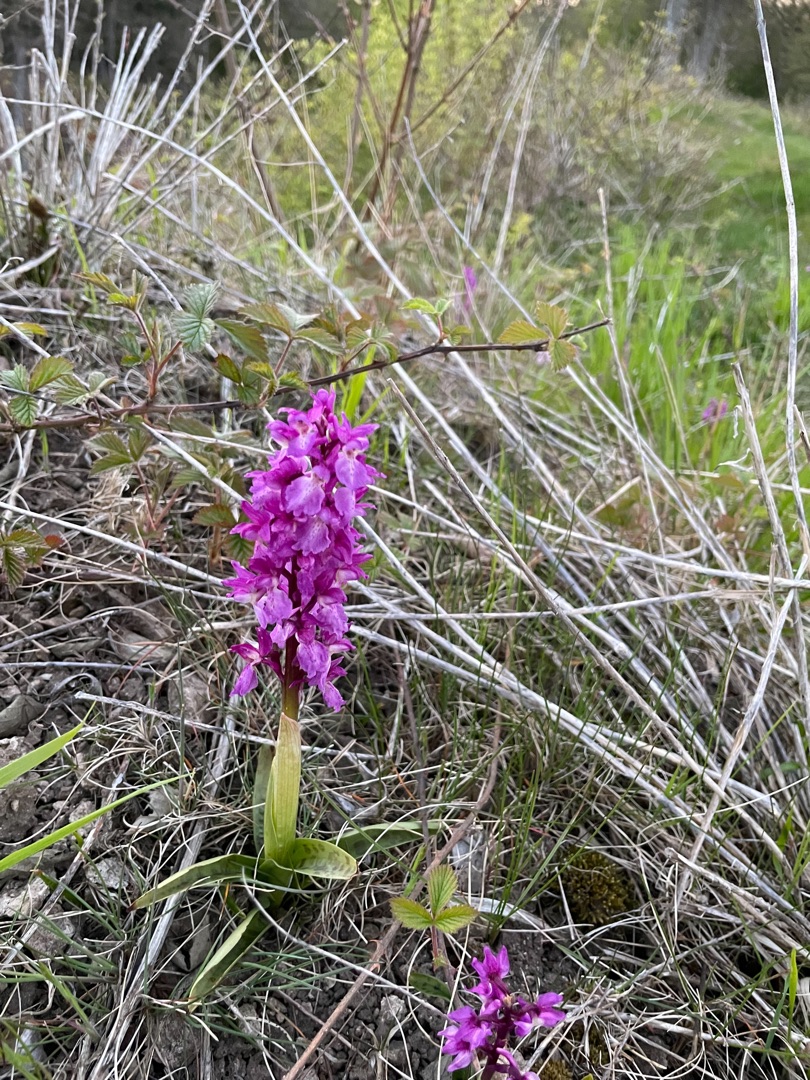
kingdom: Plantae
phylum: Tracheophyta
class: Liliopsida
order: Asparagales
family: Orchidaceae
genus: Orchis
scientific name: Orchis mascula
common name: Tyndakset gøgeurt
